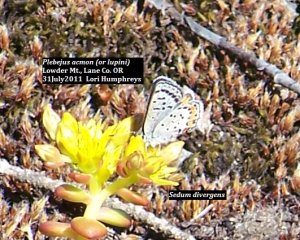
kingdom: Animalia
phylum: Arthropoda
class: Insecta
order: Lepidoptera
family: Lycaenidae
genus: Plebejus
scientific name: Plebejus acmon
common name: Acmon Blue
